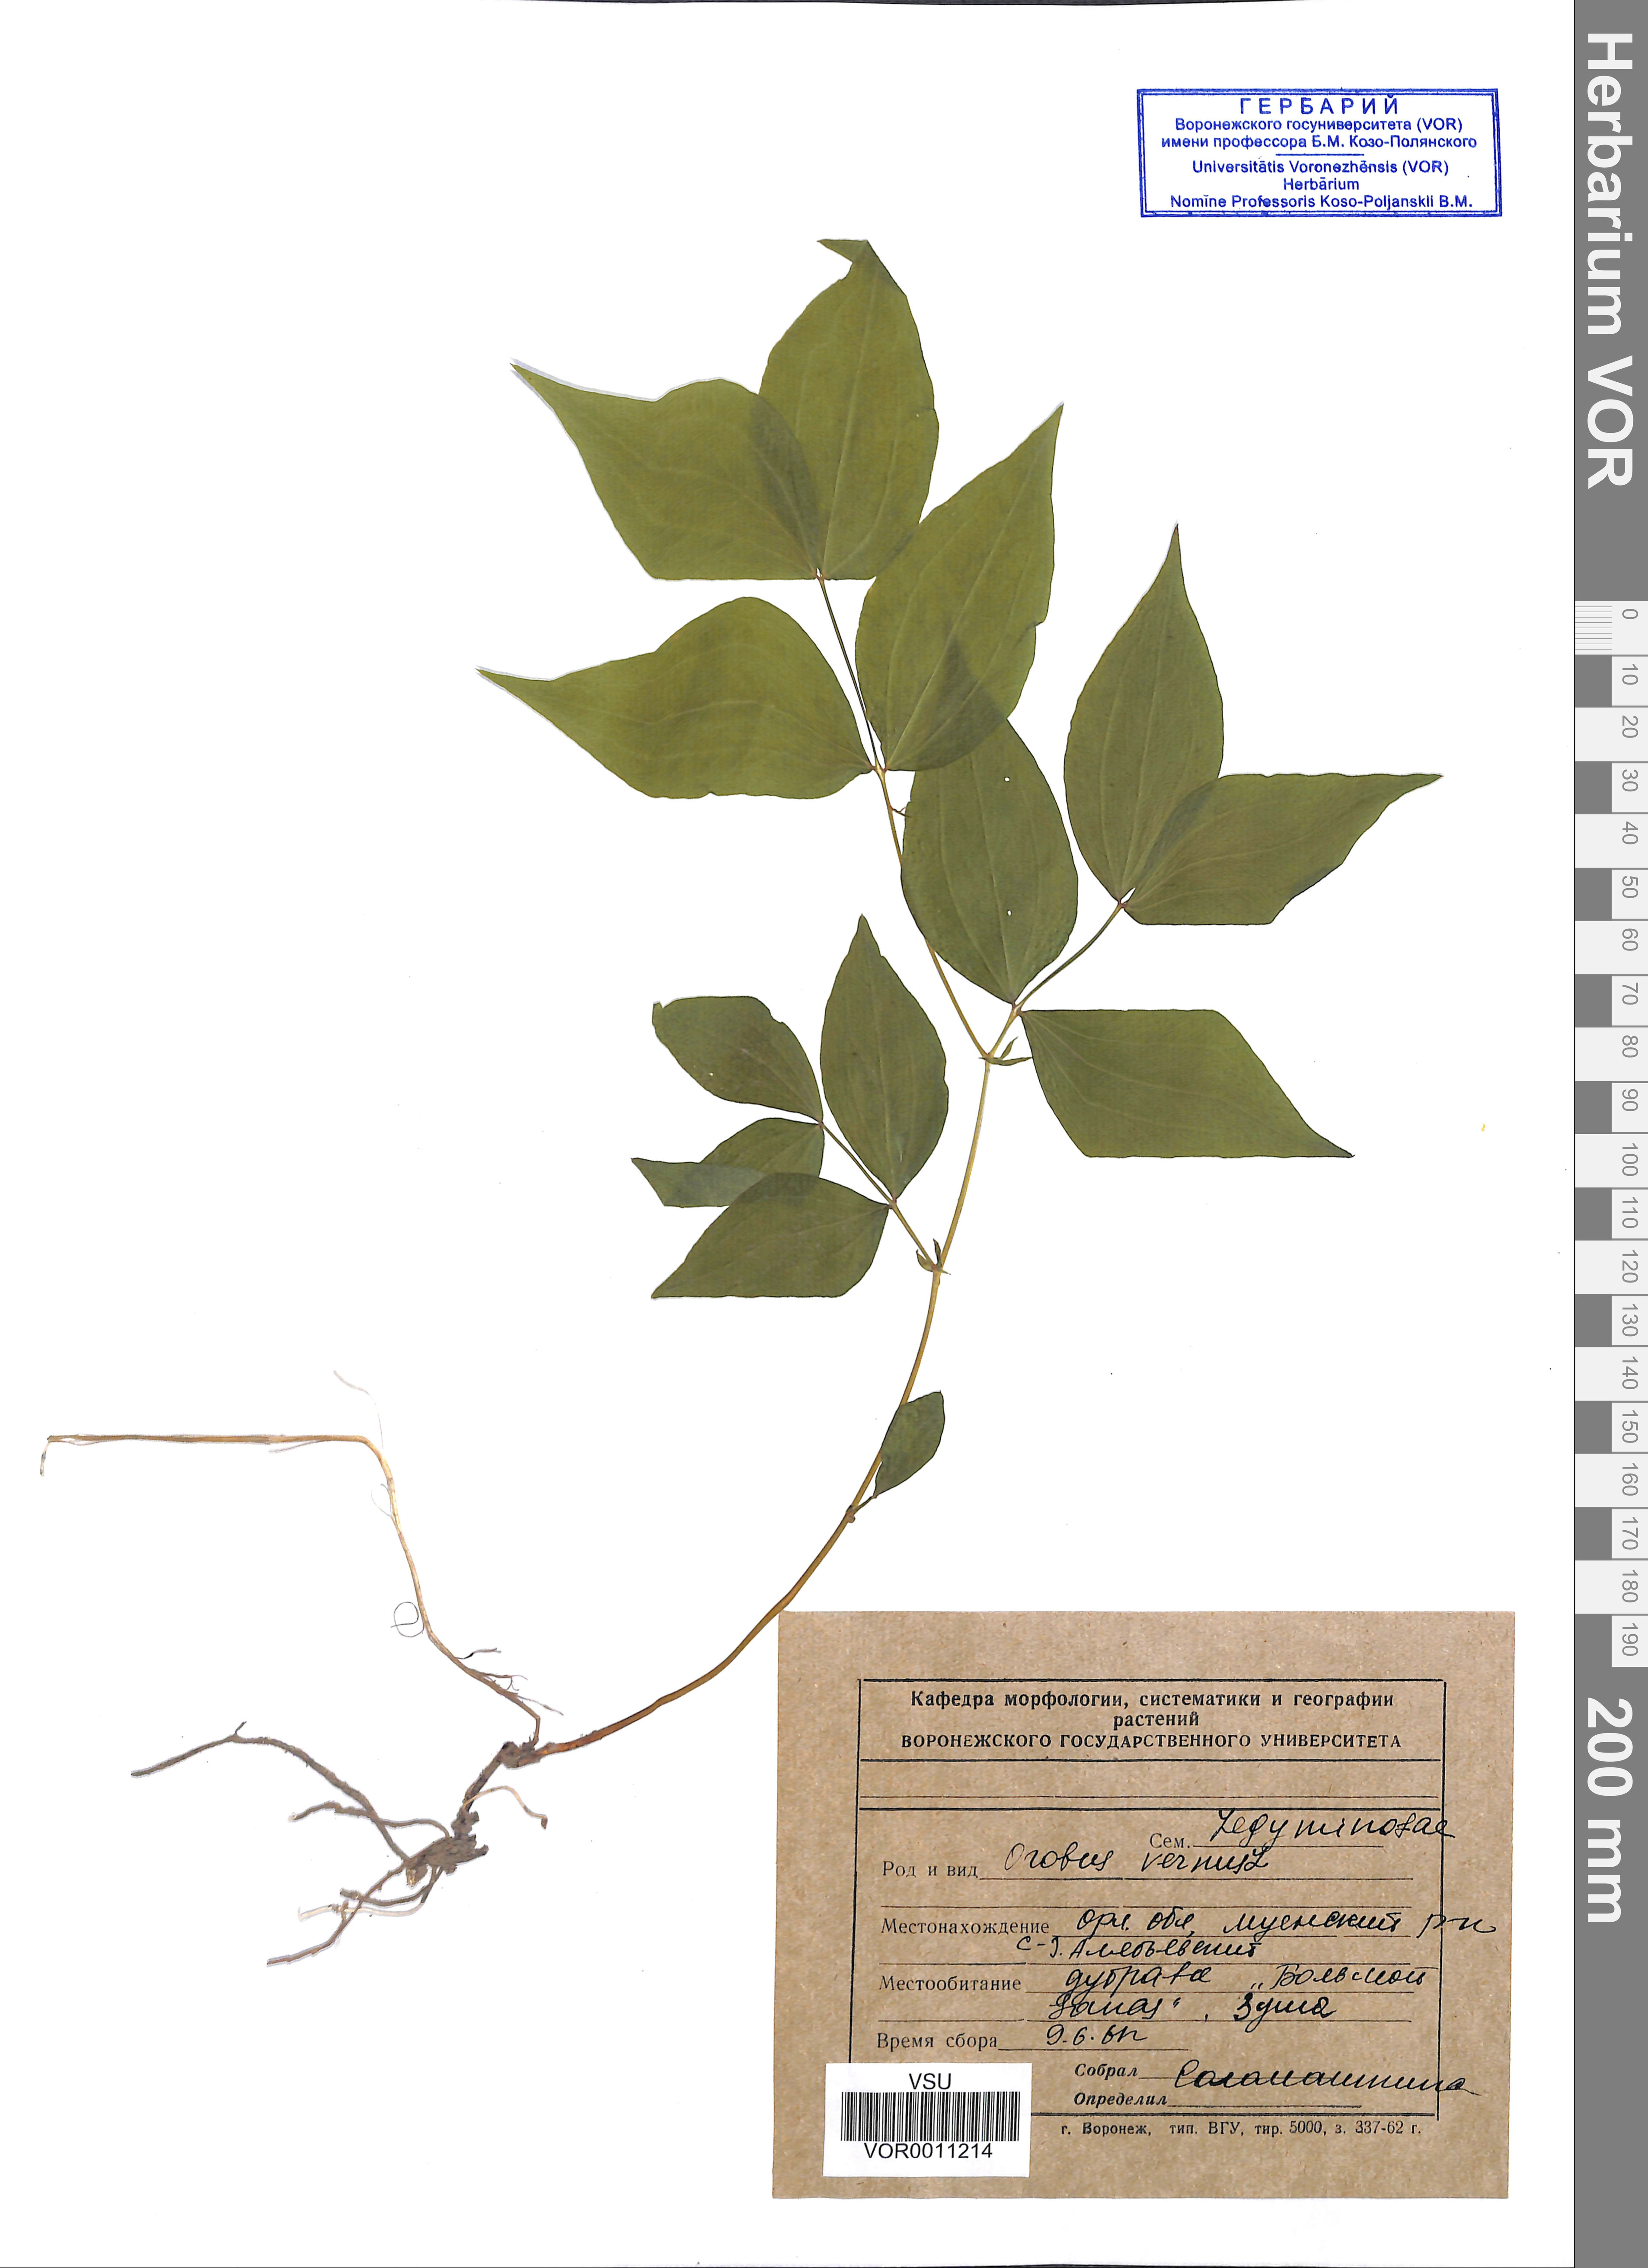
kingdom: Plantae
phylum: Tracheophyta
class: Magnoliopsida
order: Fabales
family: Fabaceae
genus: Lathyrus
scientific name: Lathyrus vernus
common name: Spring pea
